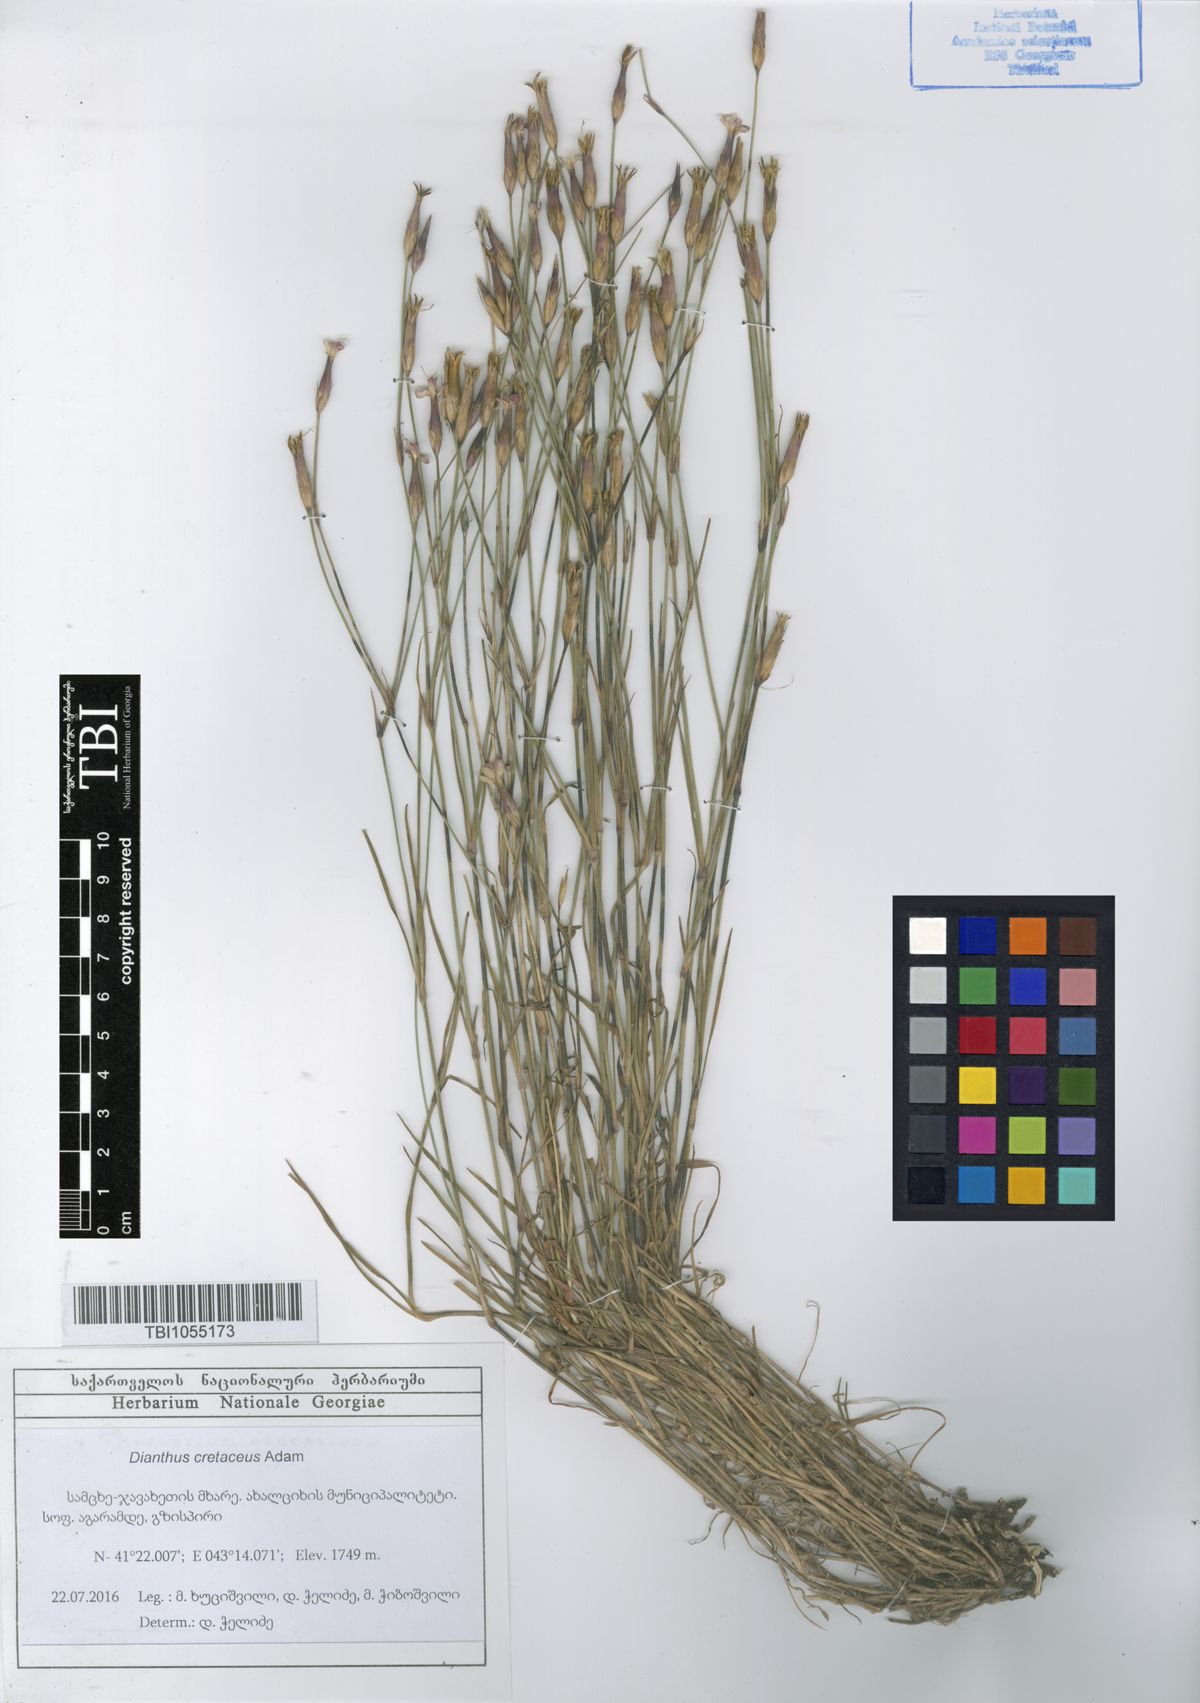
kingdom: Plantae
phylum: Tracheophyta
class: Magnoliopsida
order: Caryophyllales
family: Caryophyllaceae
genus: Dianthus
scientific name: Dianthus cretaceus
